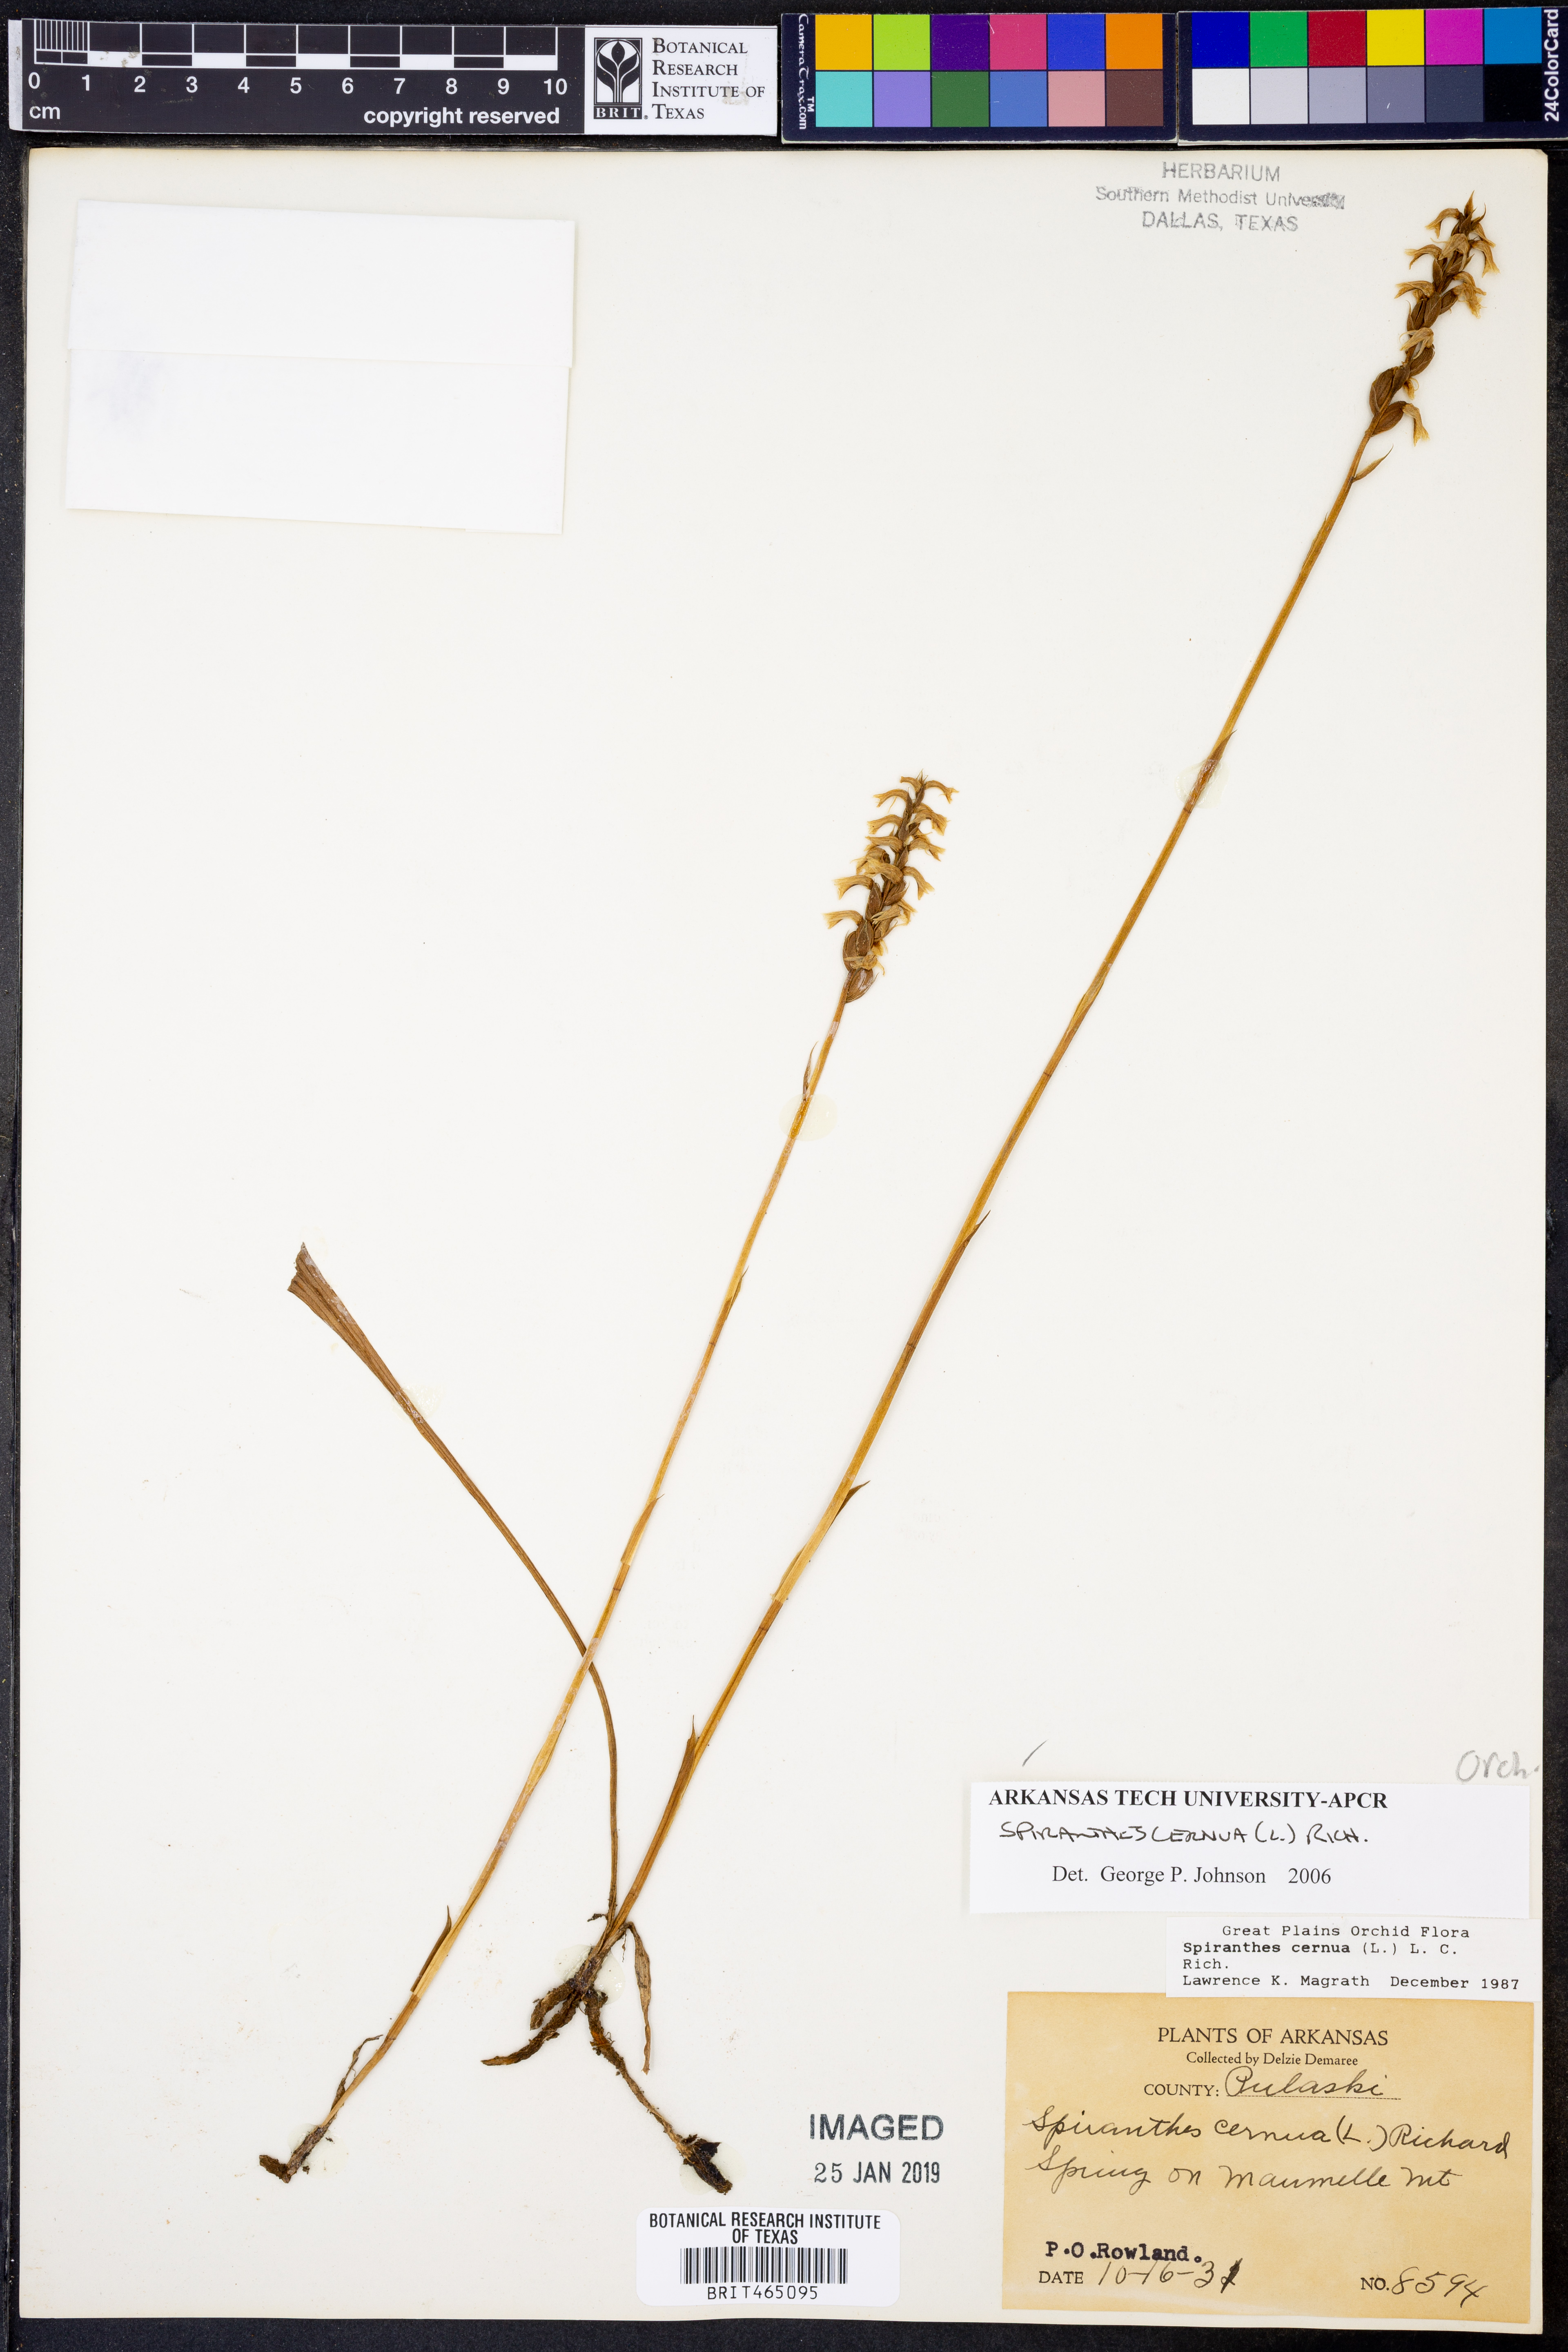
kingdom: Plantae
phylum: Tracheophyta
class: Liliopsida
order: Asparagales
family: Orchidaceae
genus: Spiranthes
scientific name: Spiranthes cernua
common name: Dropping ladies'-tresses
